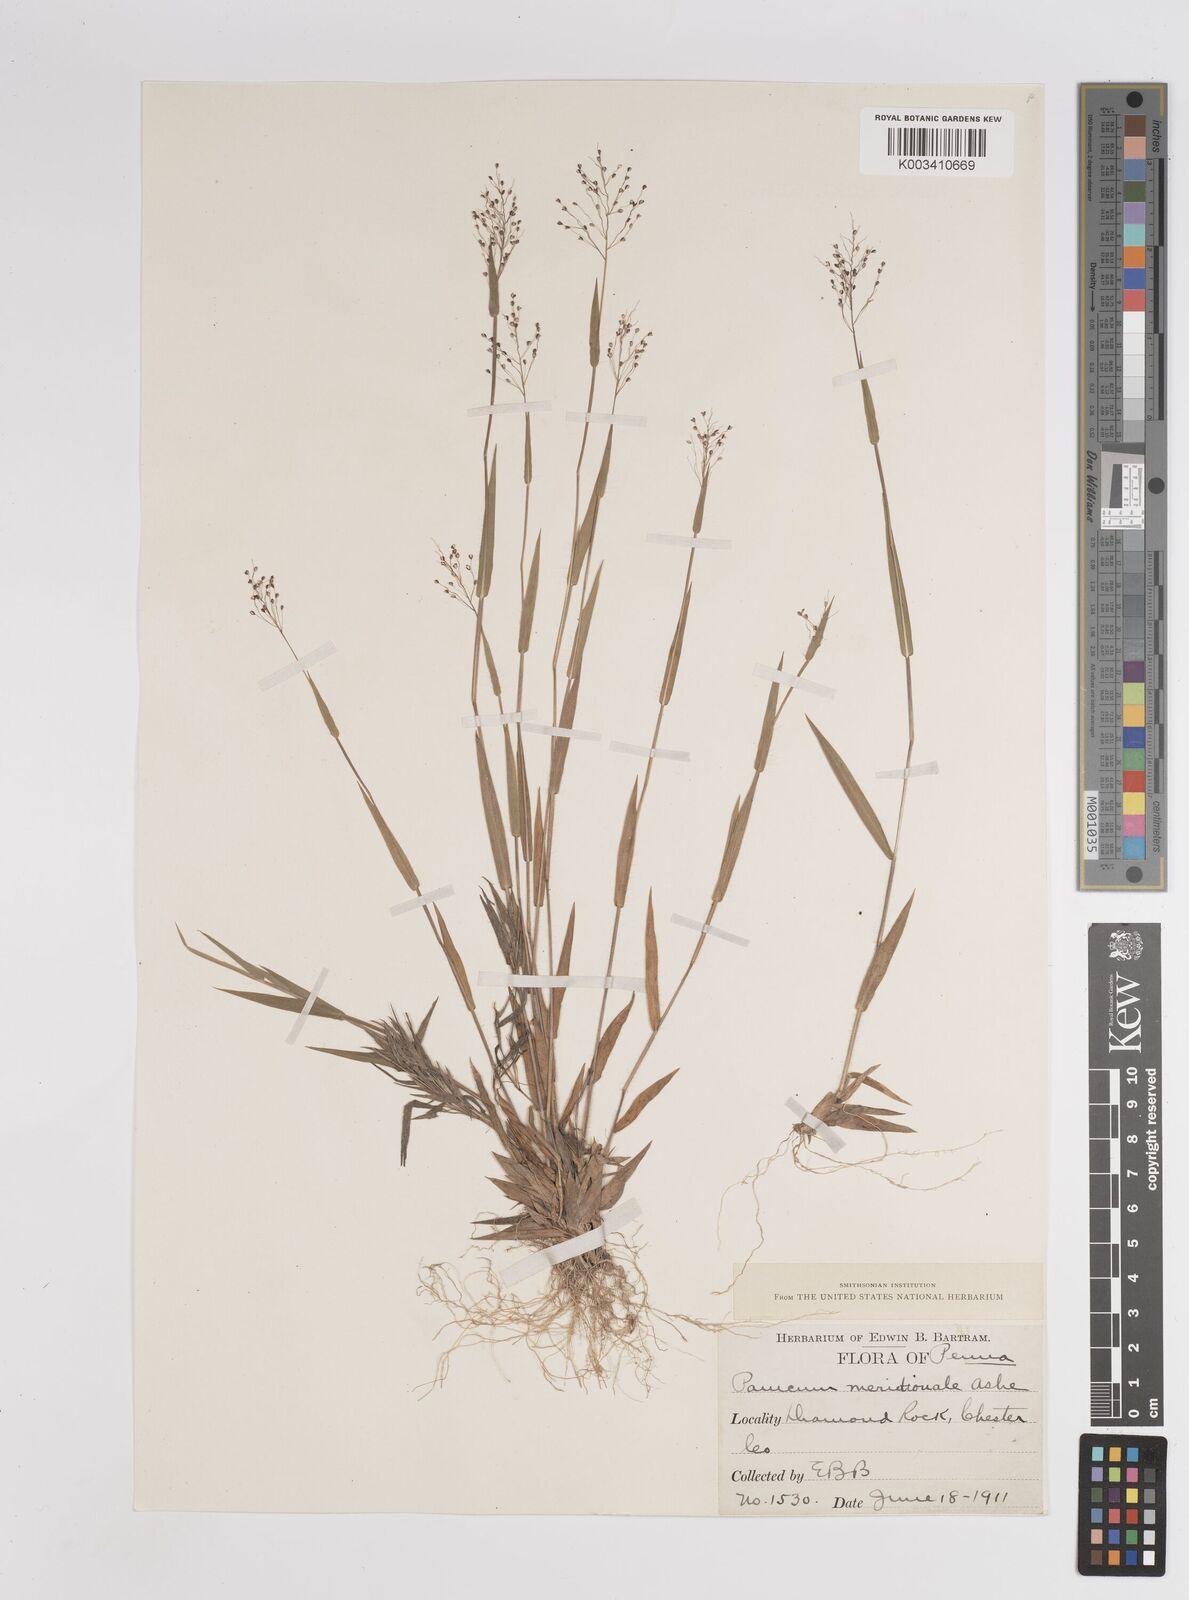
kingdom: Plantae
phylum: Tracheophyta
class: Liliopsida
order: Poales
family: Poaceae
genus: Dichanthelium
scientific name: Dichanthelium meridionale
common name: Mat panicgrass
